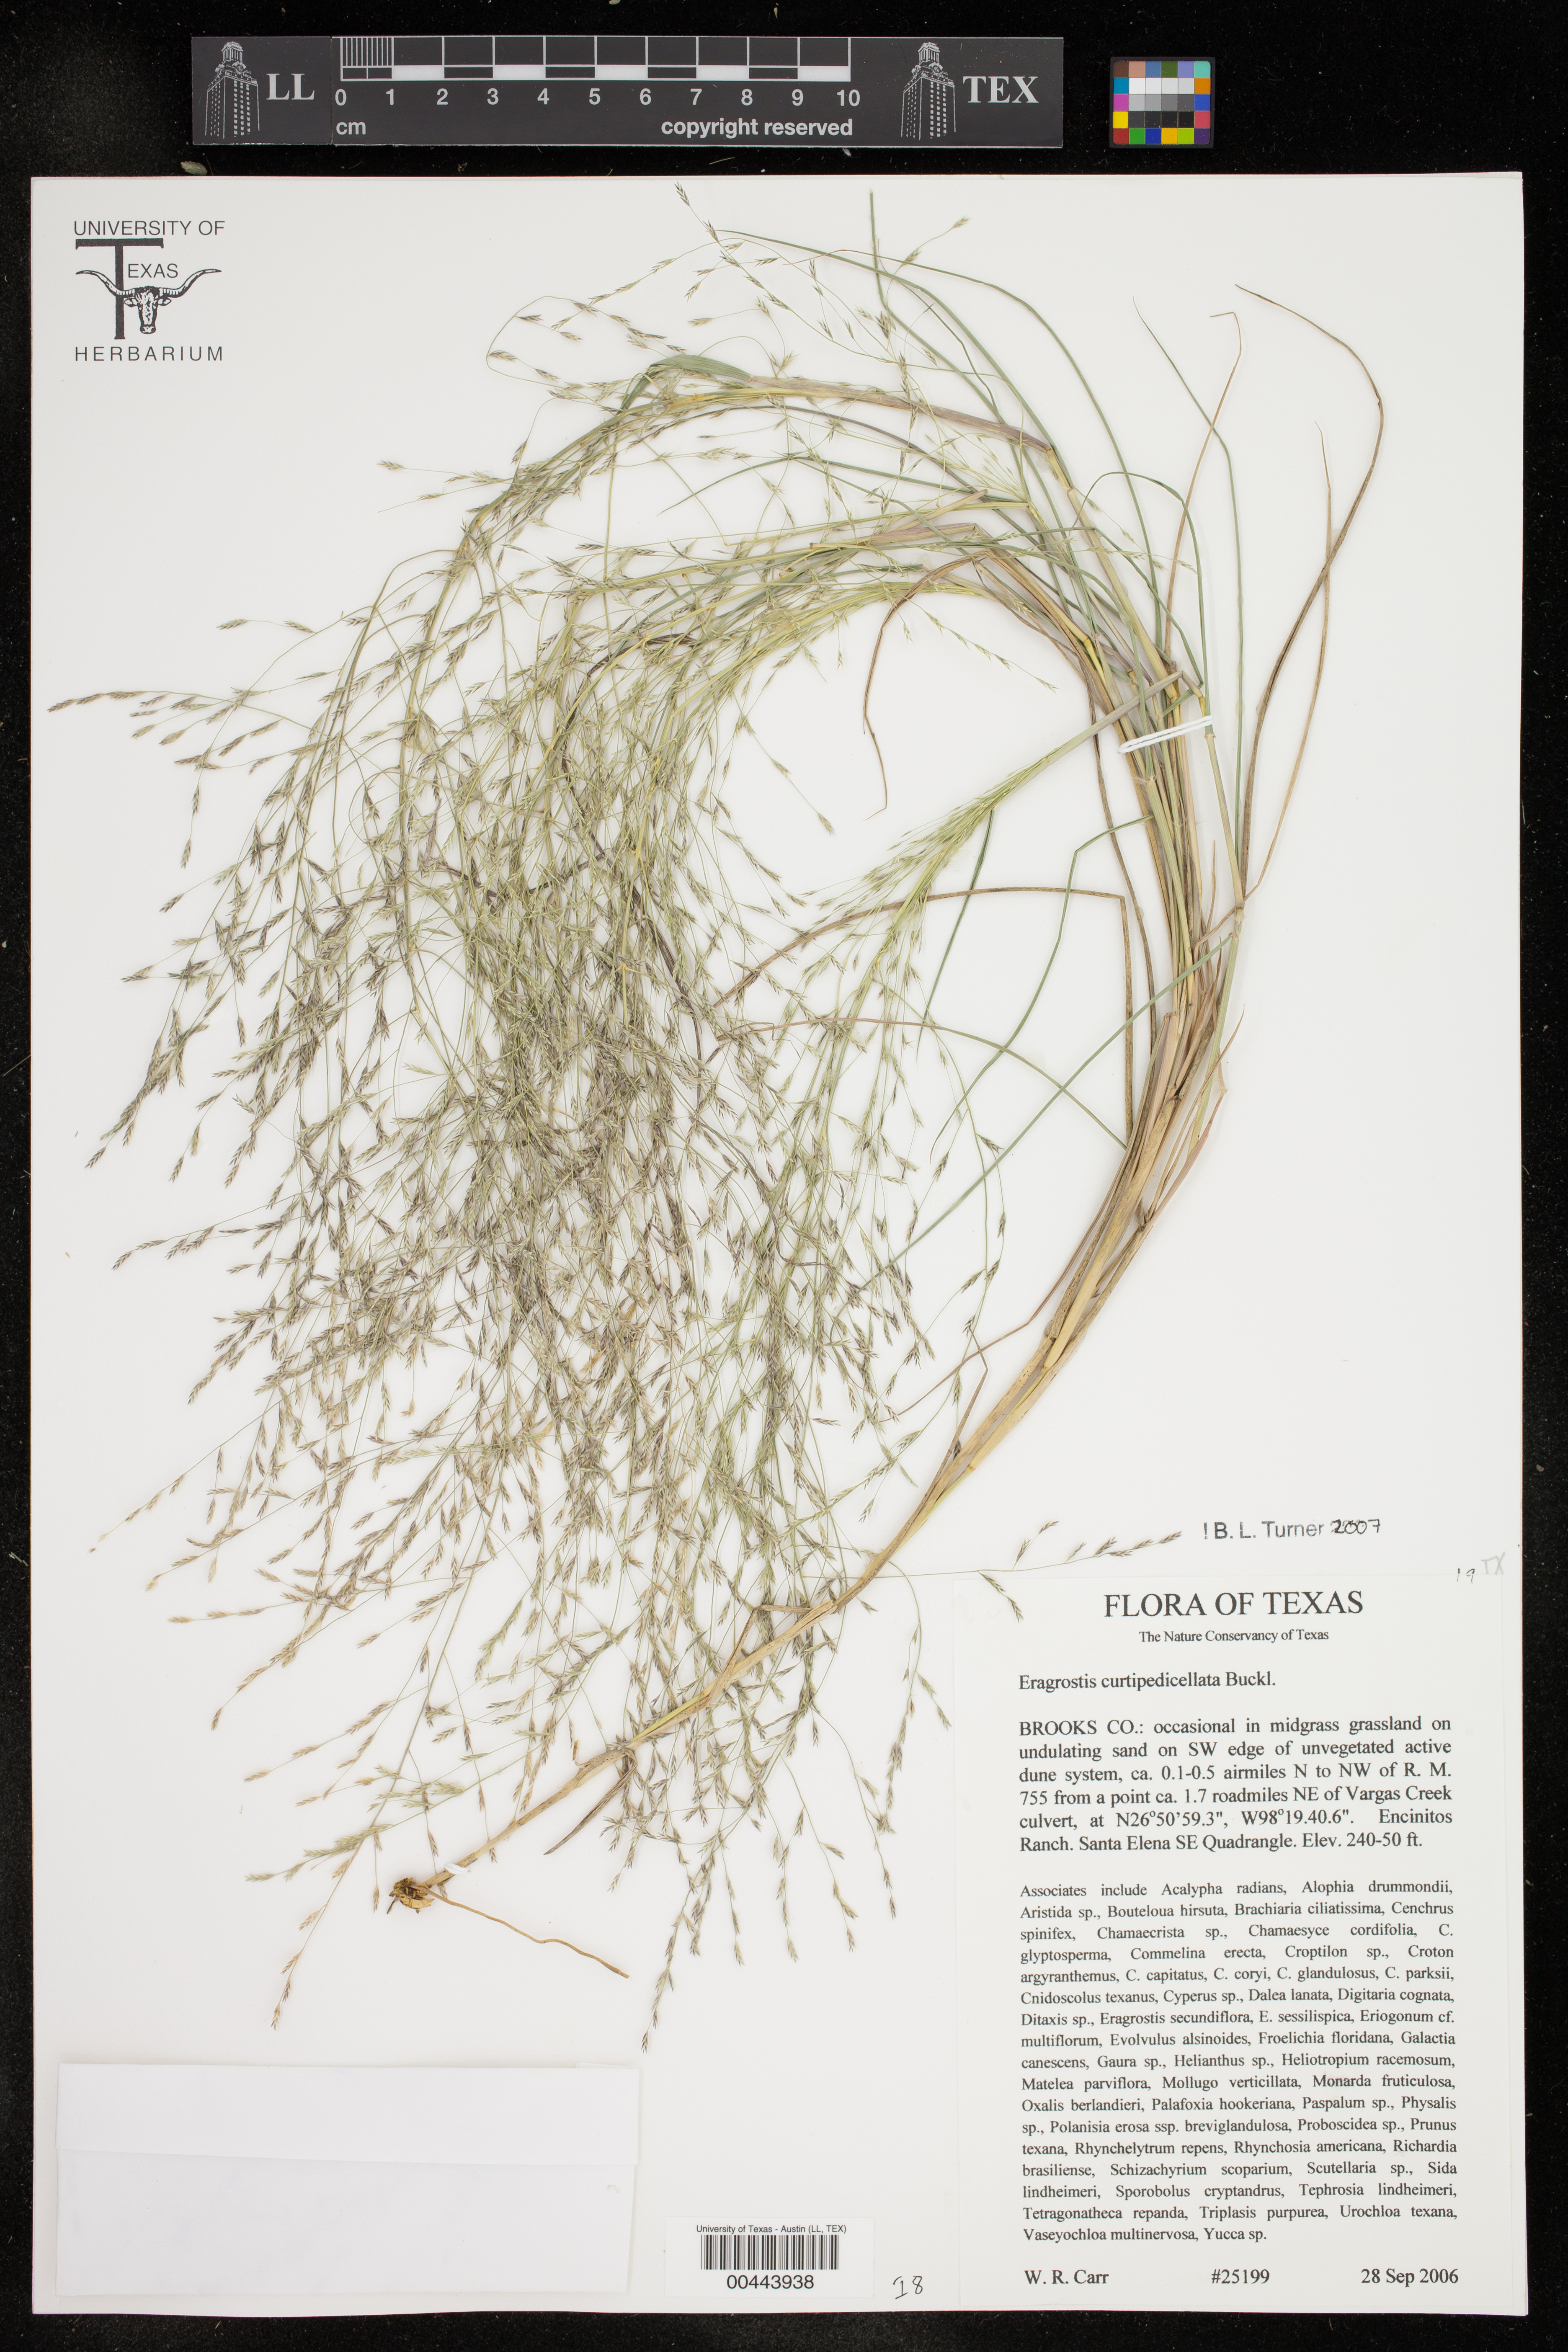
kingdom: Plantae
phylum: Tracheophyta
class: Liliopsida
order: Poales
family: Poaceae
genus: Eragrostis
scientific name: Eragrostis curtipedicellata
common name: Gummy love grass
